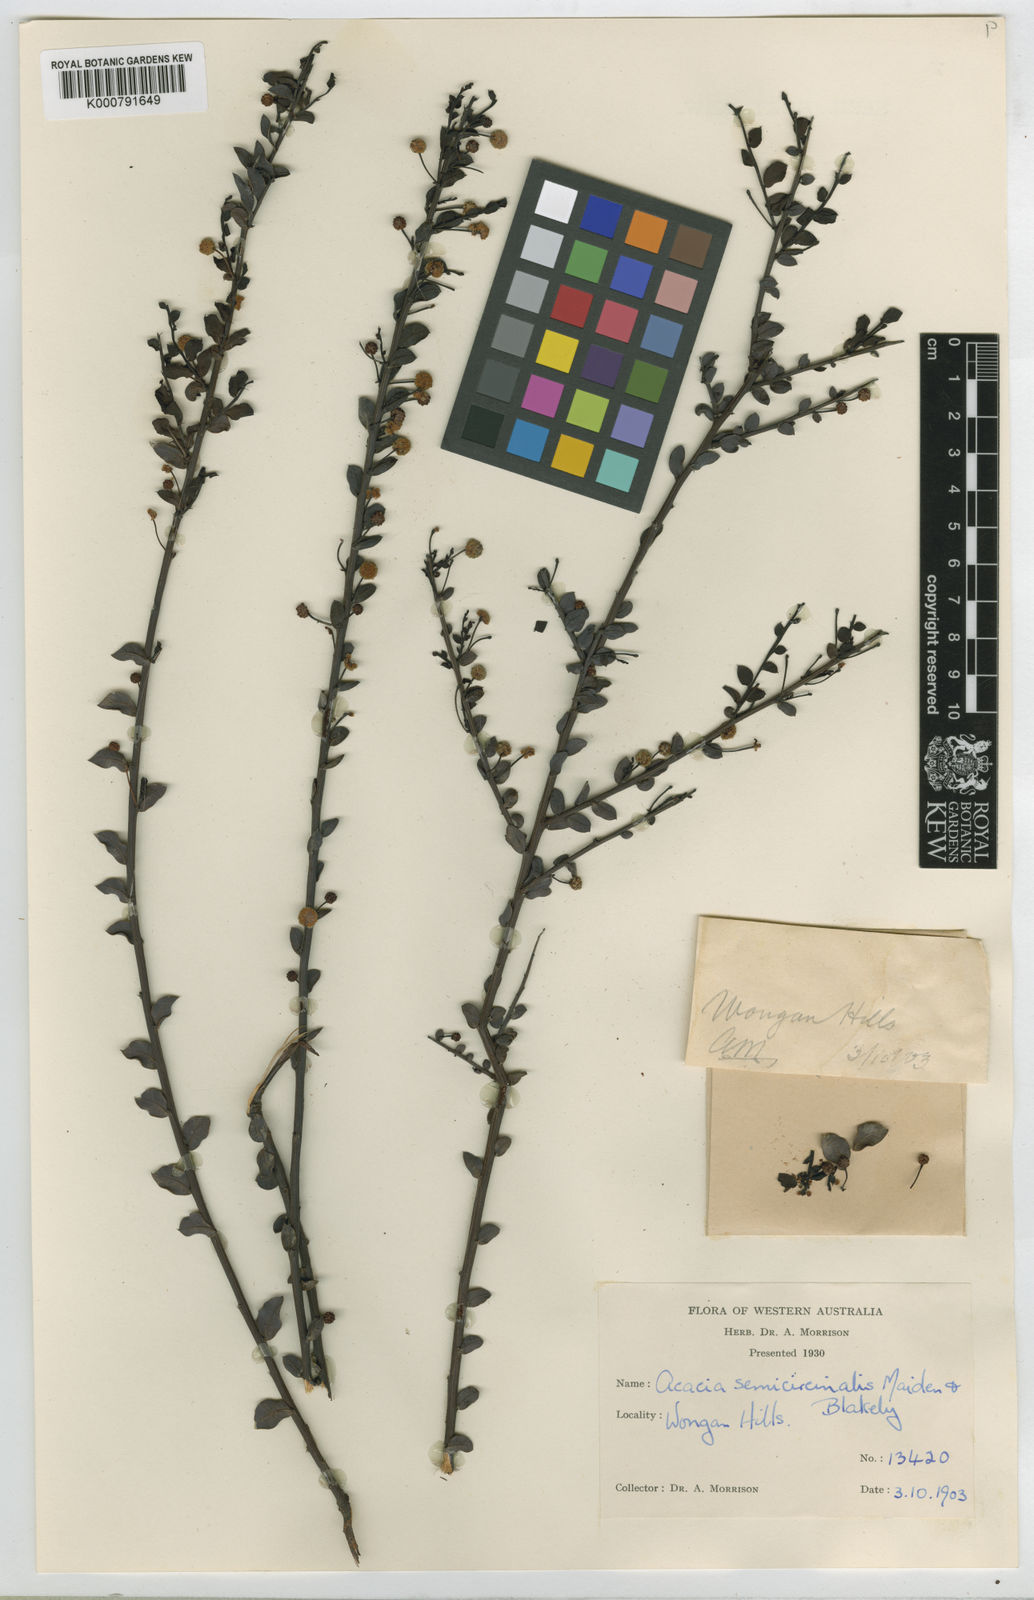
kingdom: Plantae
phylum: Tracheophyta
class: Magnoliopsida
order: Fabales
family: Fabaceae
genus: Acacia
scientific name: Acacia semicircinalis
